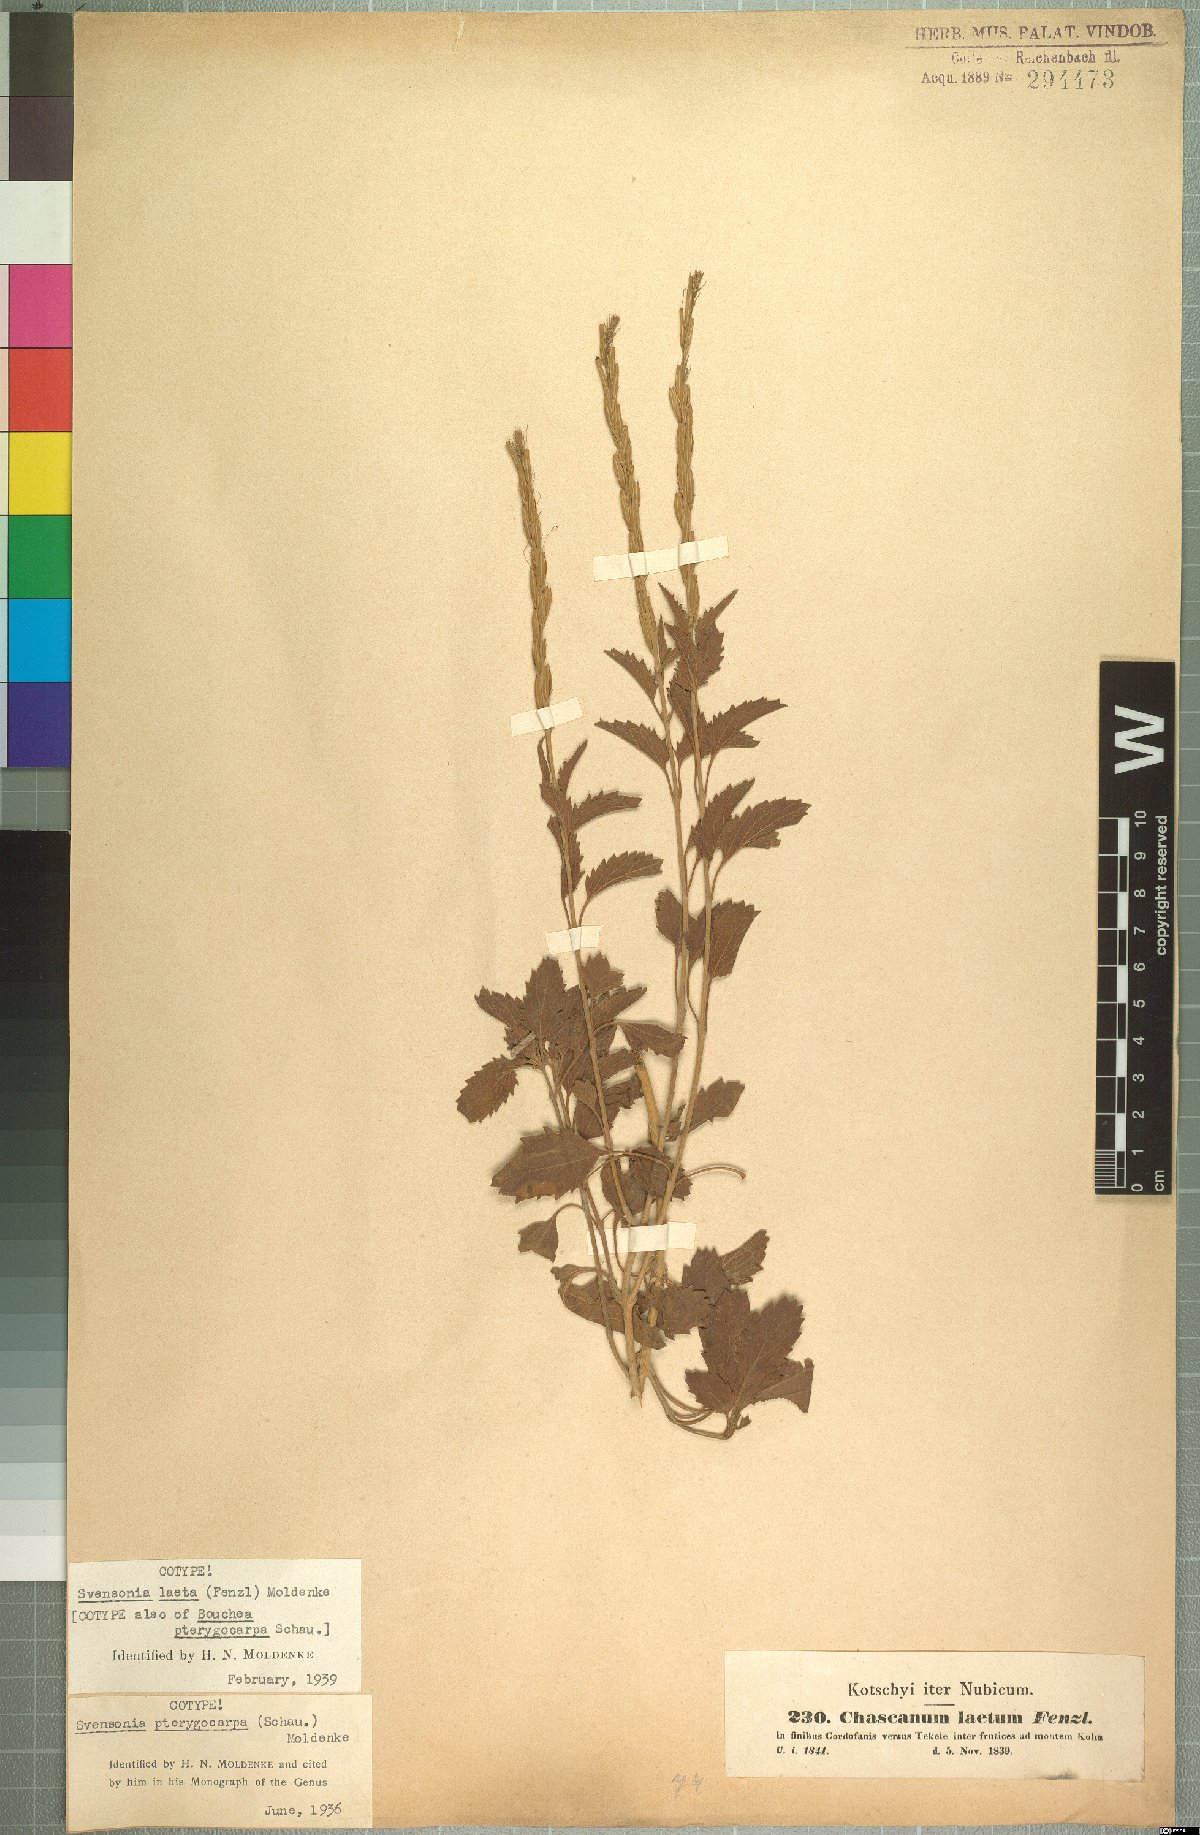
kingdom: Plantae
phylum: Tracheophyta
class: Magnoliopsida
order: Lamiales
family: Verbenaceae
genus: Chascanum
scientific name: Chascanum laetum
